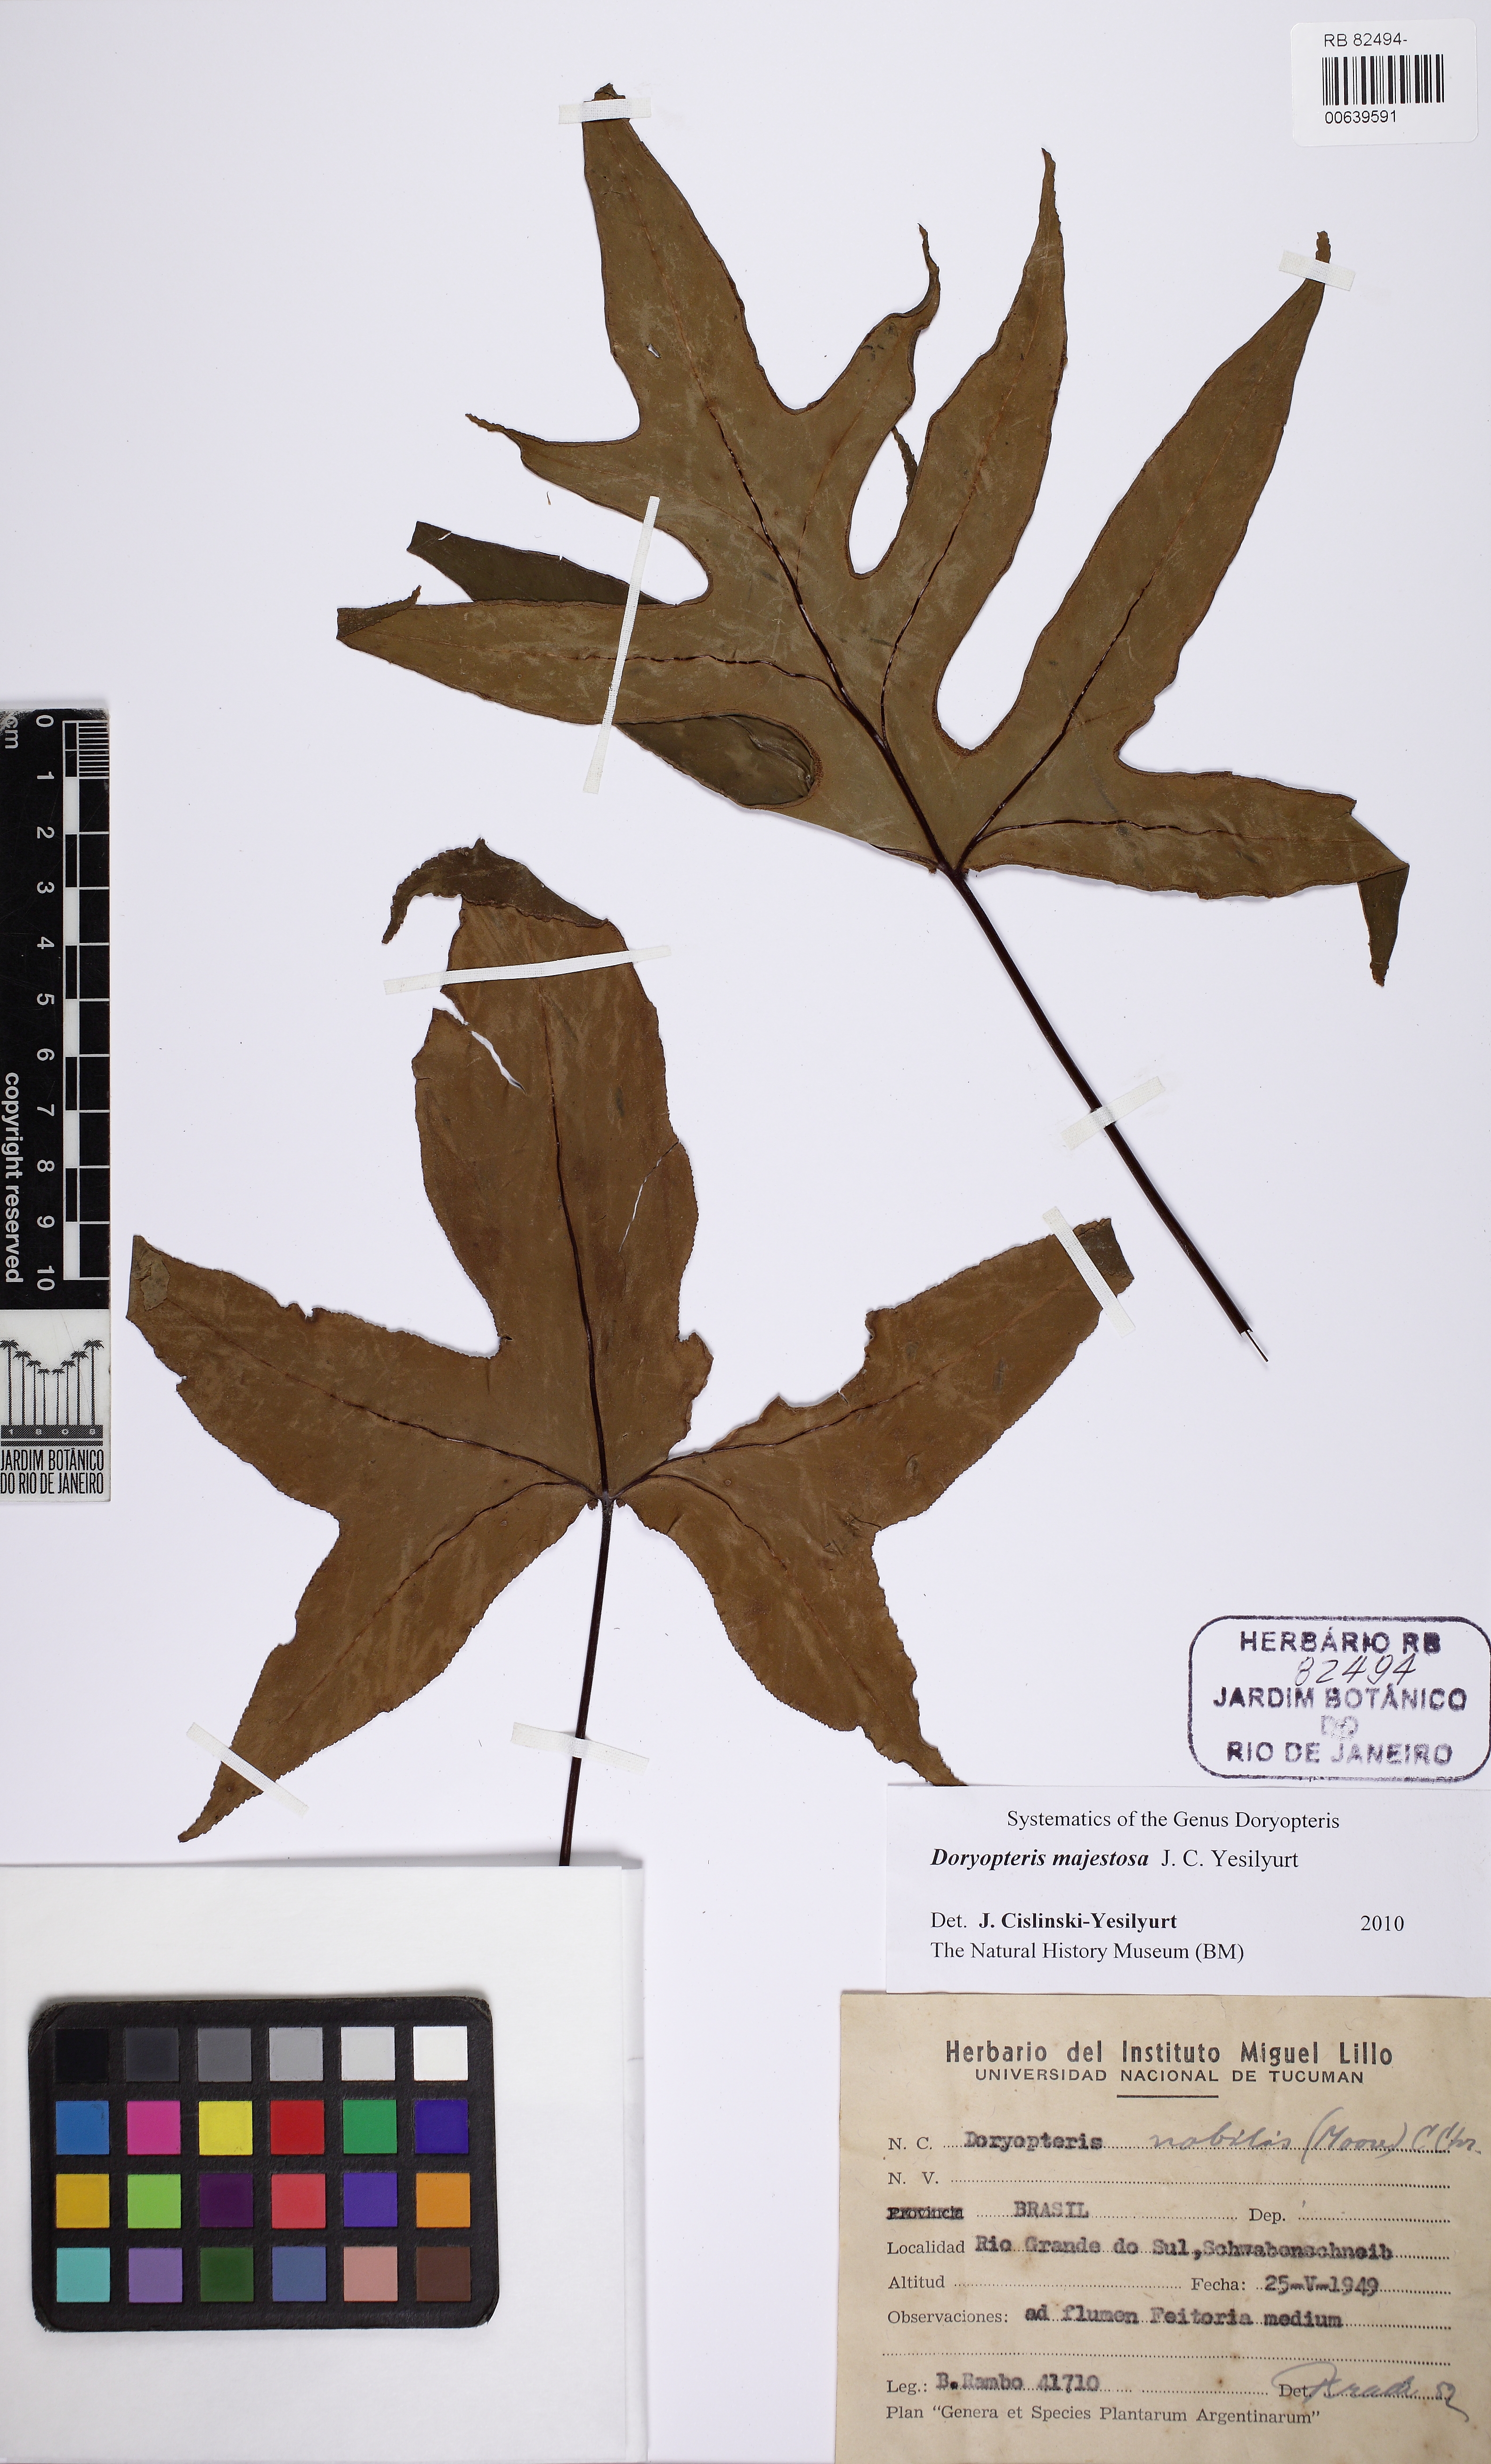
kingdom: Plantae
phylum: Tracheophyta
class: Polypodiopsida
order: Polypodiales
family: Pteridaceae
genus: Hemionitis
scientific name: Hemionitis Doryopteris patula
